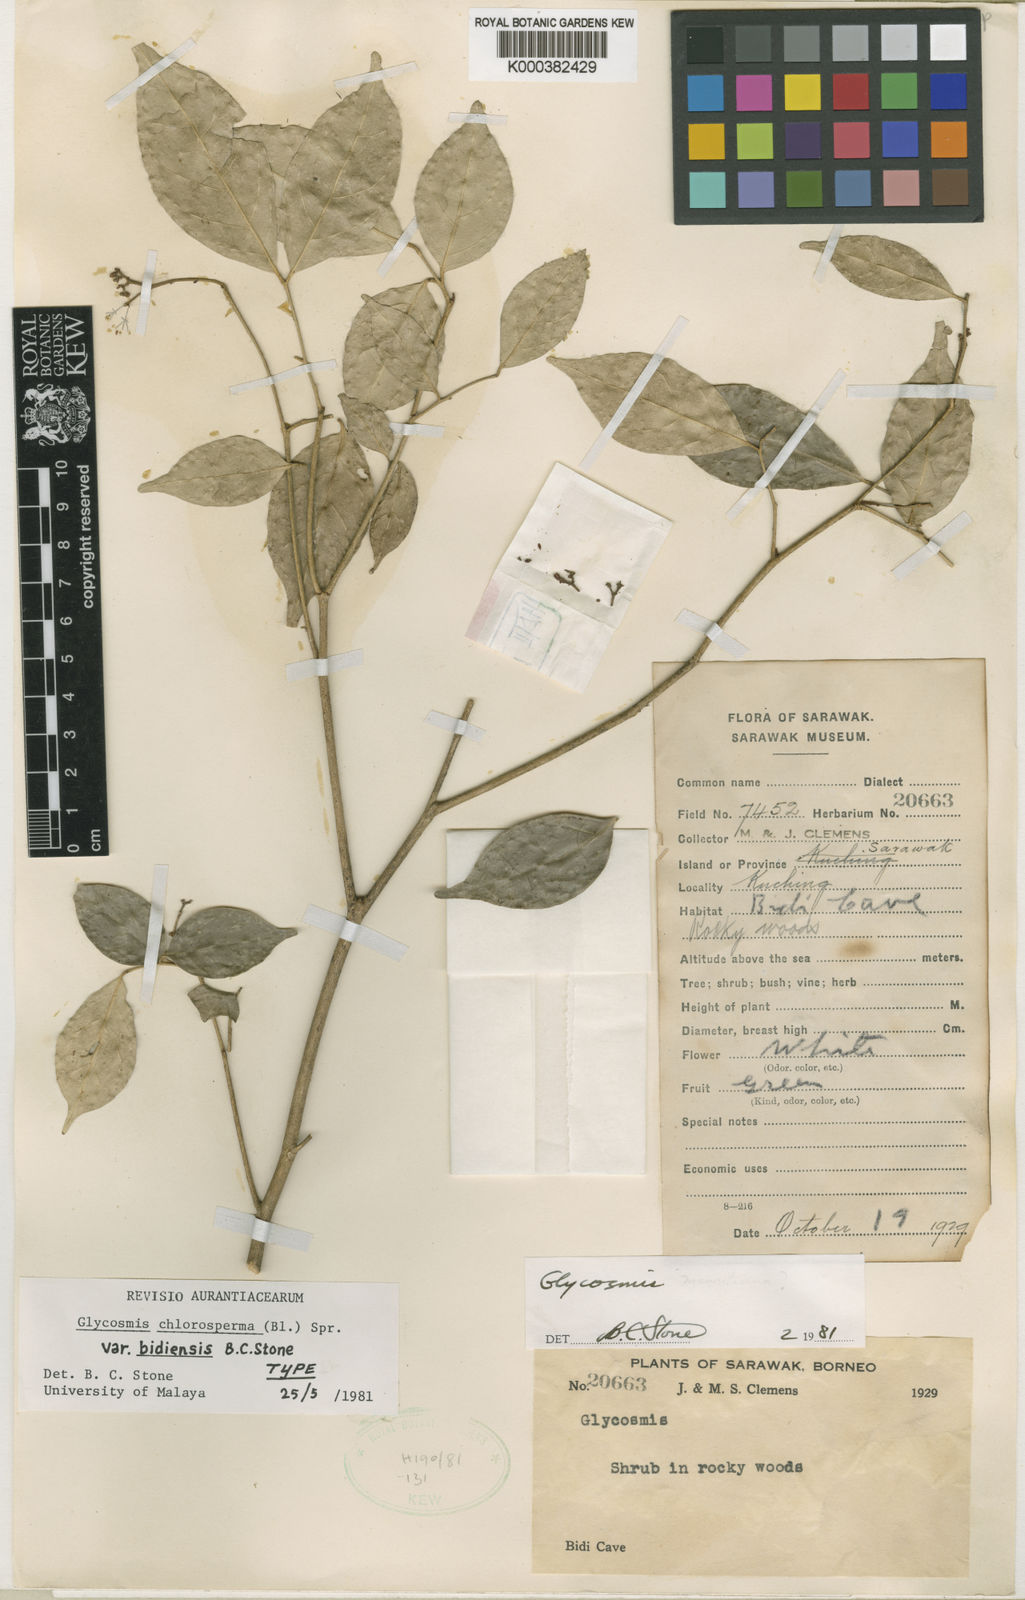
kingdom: Plantae
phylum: Tracheophyta
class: Magnoliopsida
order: Sapindales
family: Rutaceae
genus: Glycosmis
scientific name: Glycosmis chlorosperma
